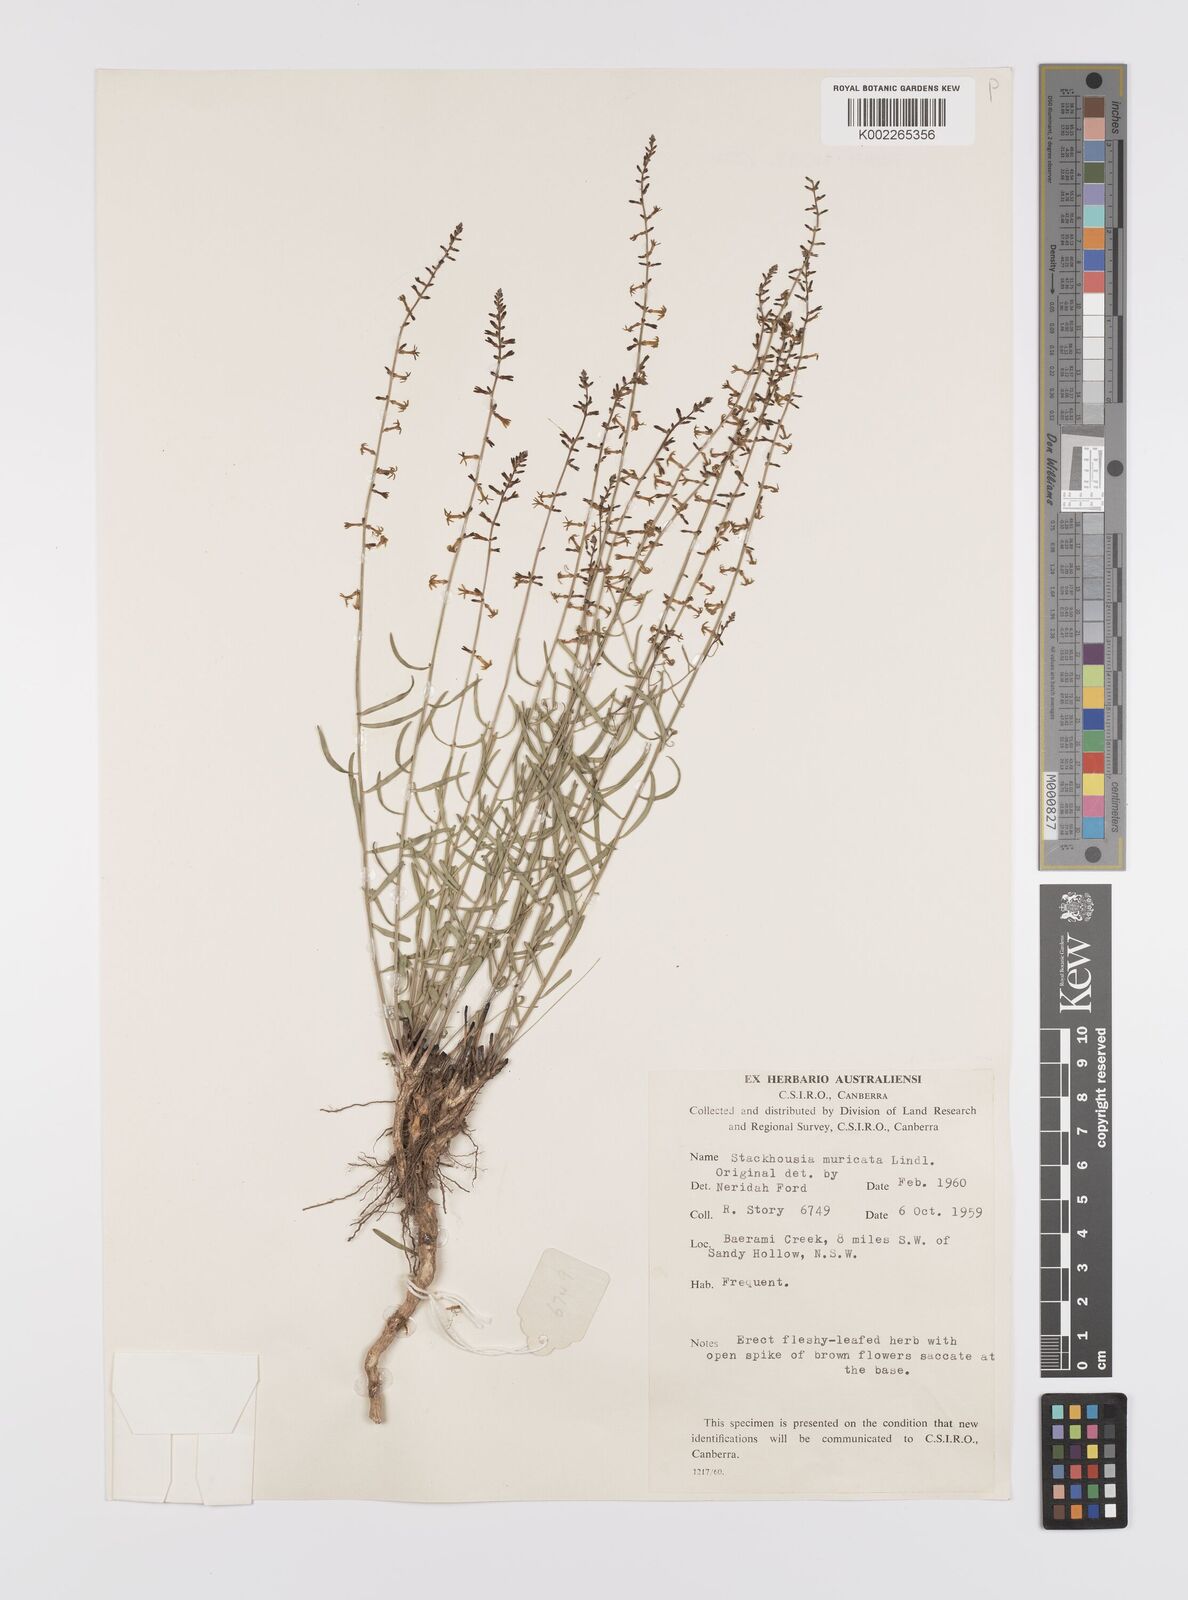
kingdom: Plantae
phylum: Tracheophyta
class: Magnoliopsida
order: Celastrales
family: Celastraceae
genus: Stackhousia
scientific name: Stackhousia muricata
